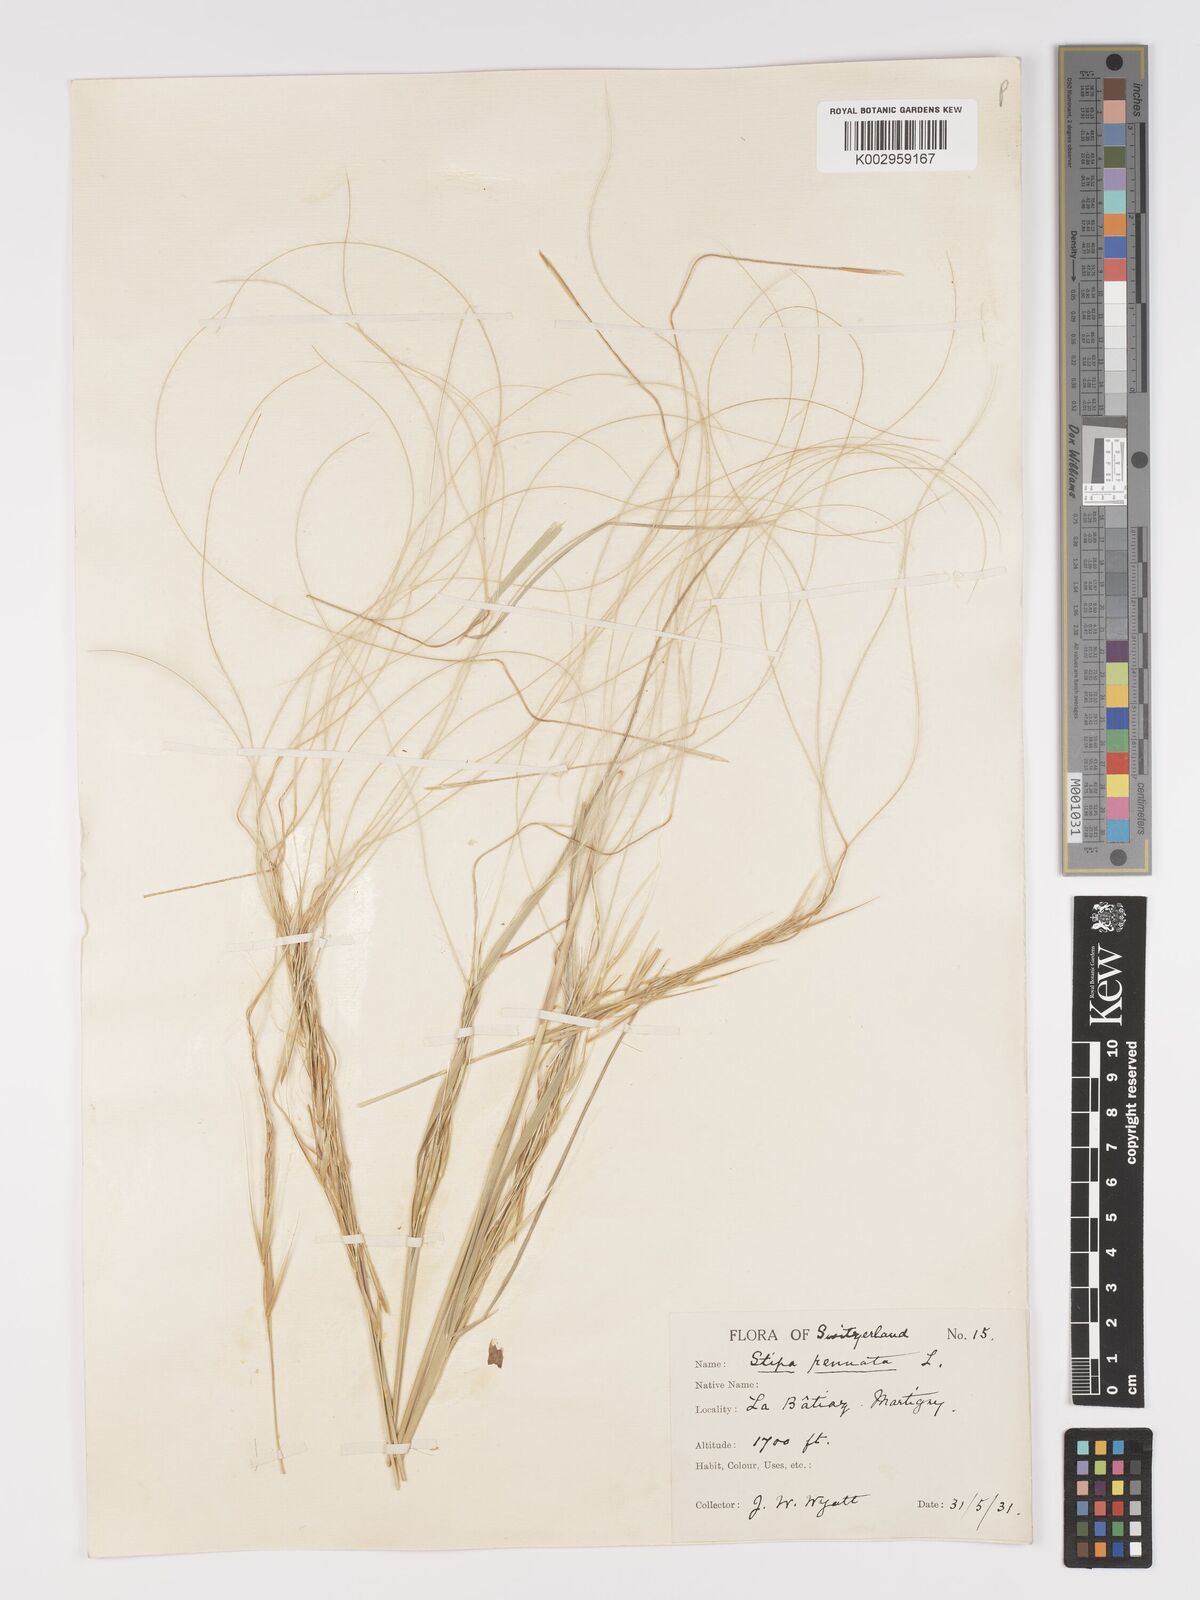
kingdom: Plantae
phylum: Tracheophyta
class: Liliopsida
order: Poales
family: Poaceae
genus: Stipa
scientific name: Stipa pennata
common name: European feather grass
